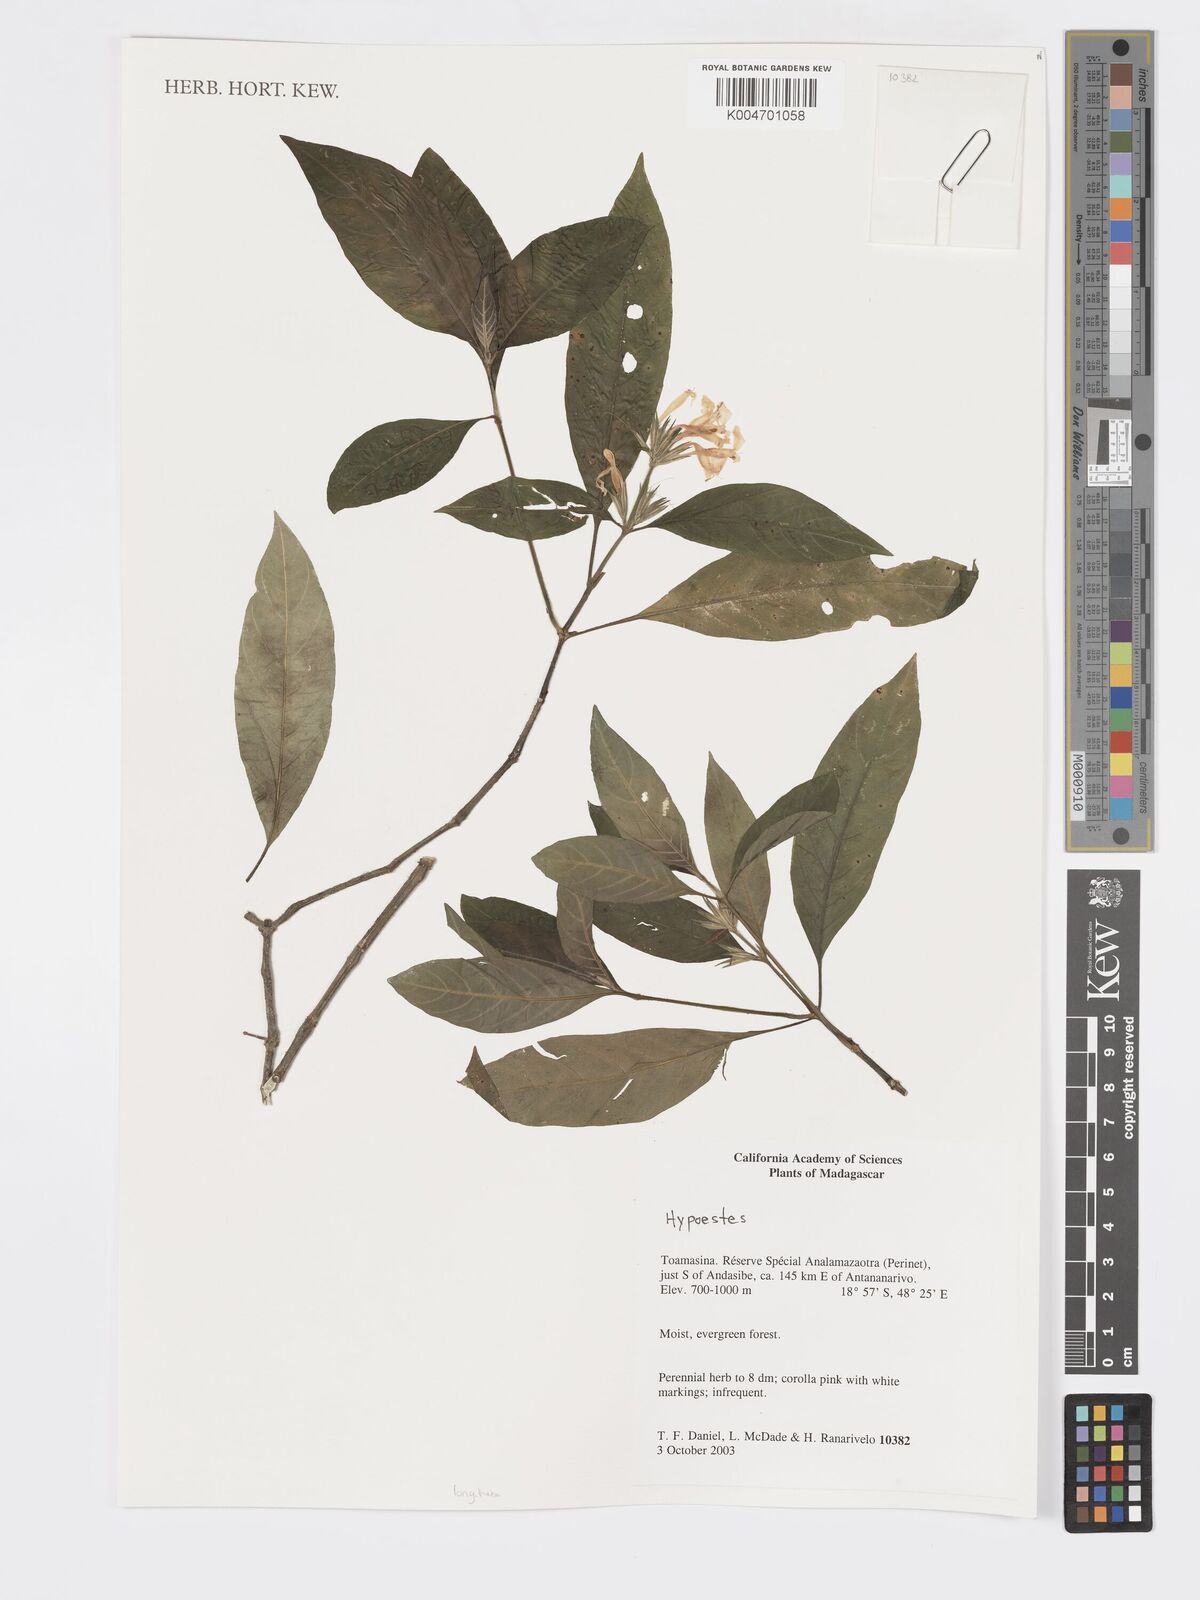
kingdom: Plantae
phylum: Tracheophyta
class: Magnoliopsida
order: Lamiales
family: Acanthaceae
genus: Hypoestes
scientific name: Hypoestes
